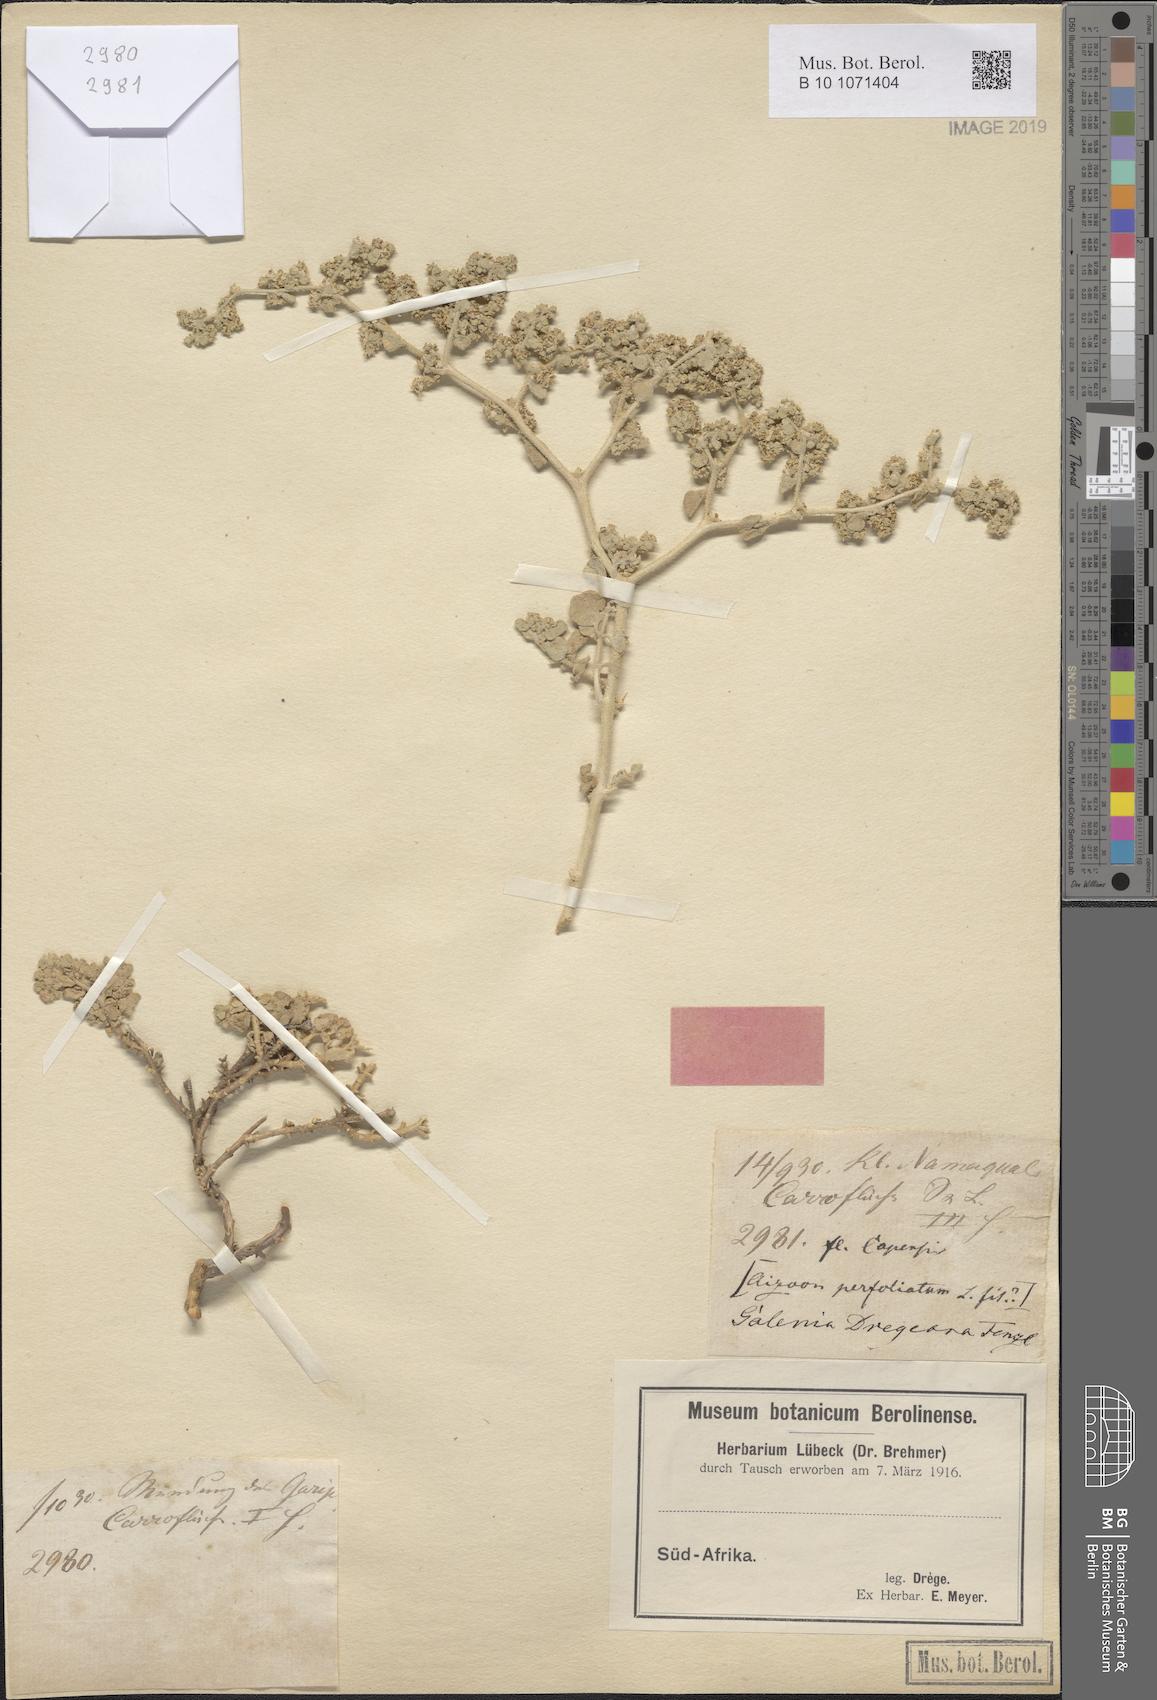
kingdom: Plantae
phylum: Tracheophyta
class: Magnoliopsida
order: Caryophyllales
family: Aizoaceae
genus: Aizoon
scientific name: Aizoon dregeanum
